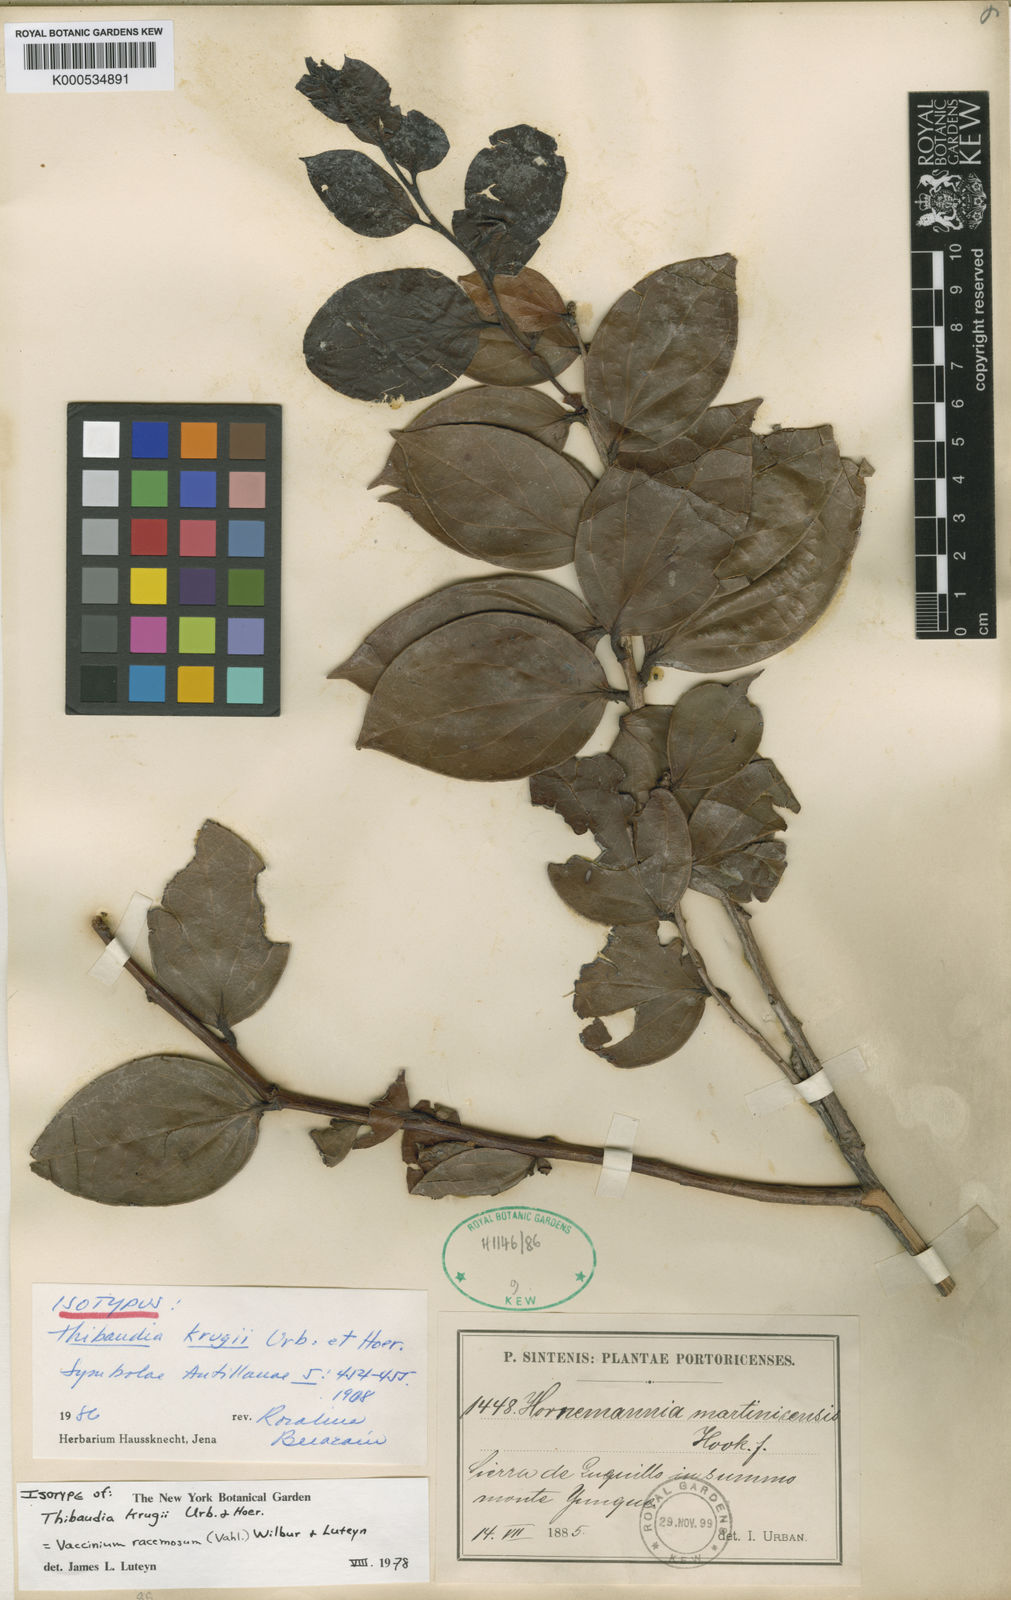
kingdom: Plantae
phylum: Tracheophyta
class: Magnoliopsida
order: Ericales
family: Ericaceae
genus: Symphysia
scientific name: Symphysia racemosa
